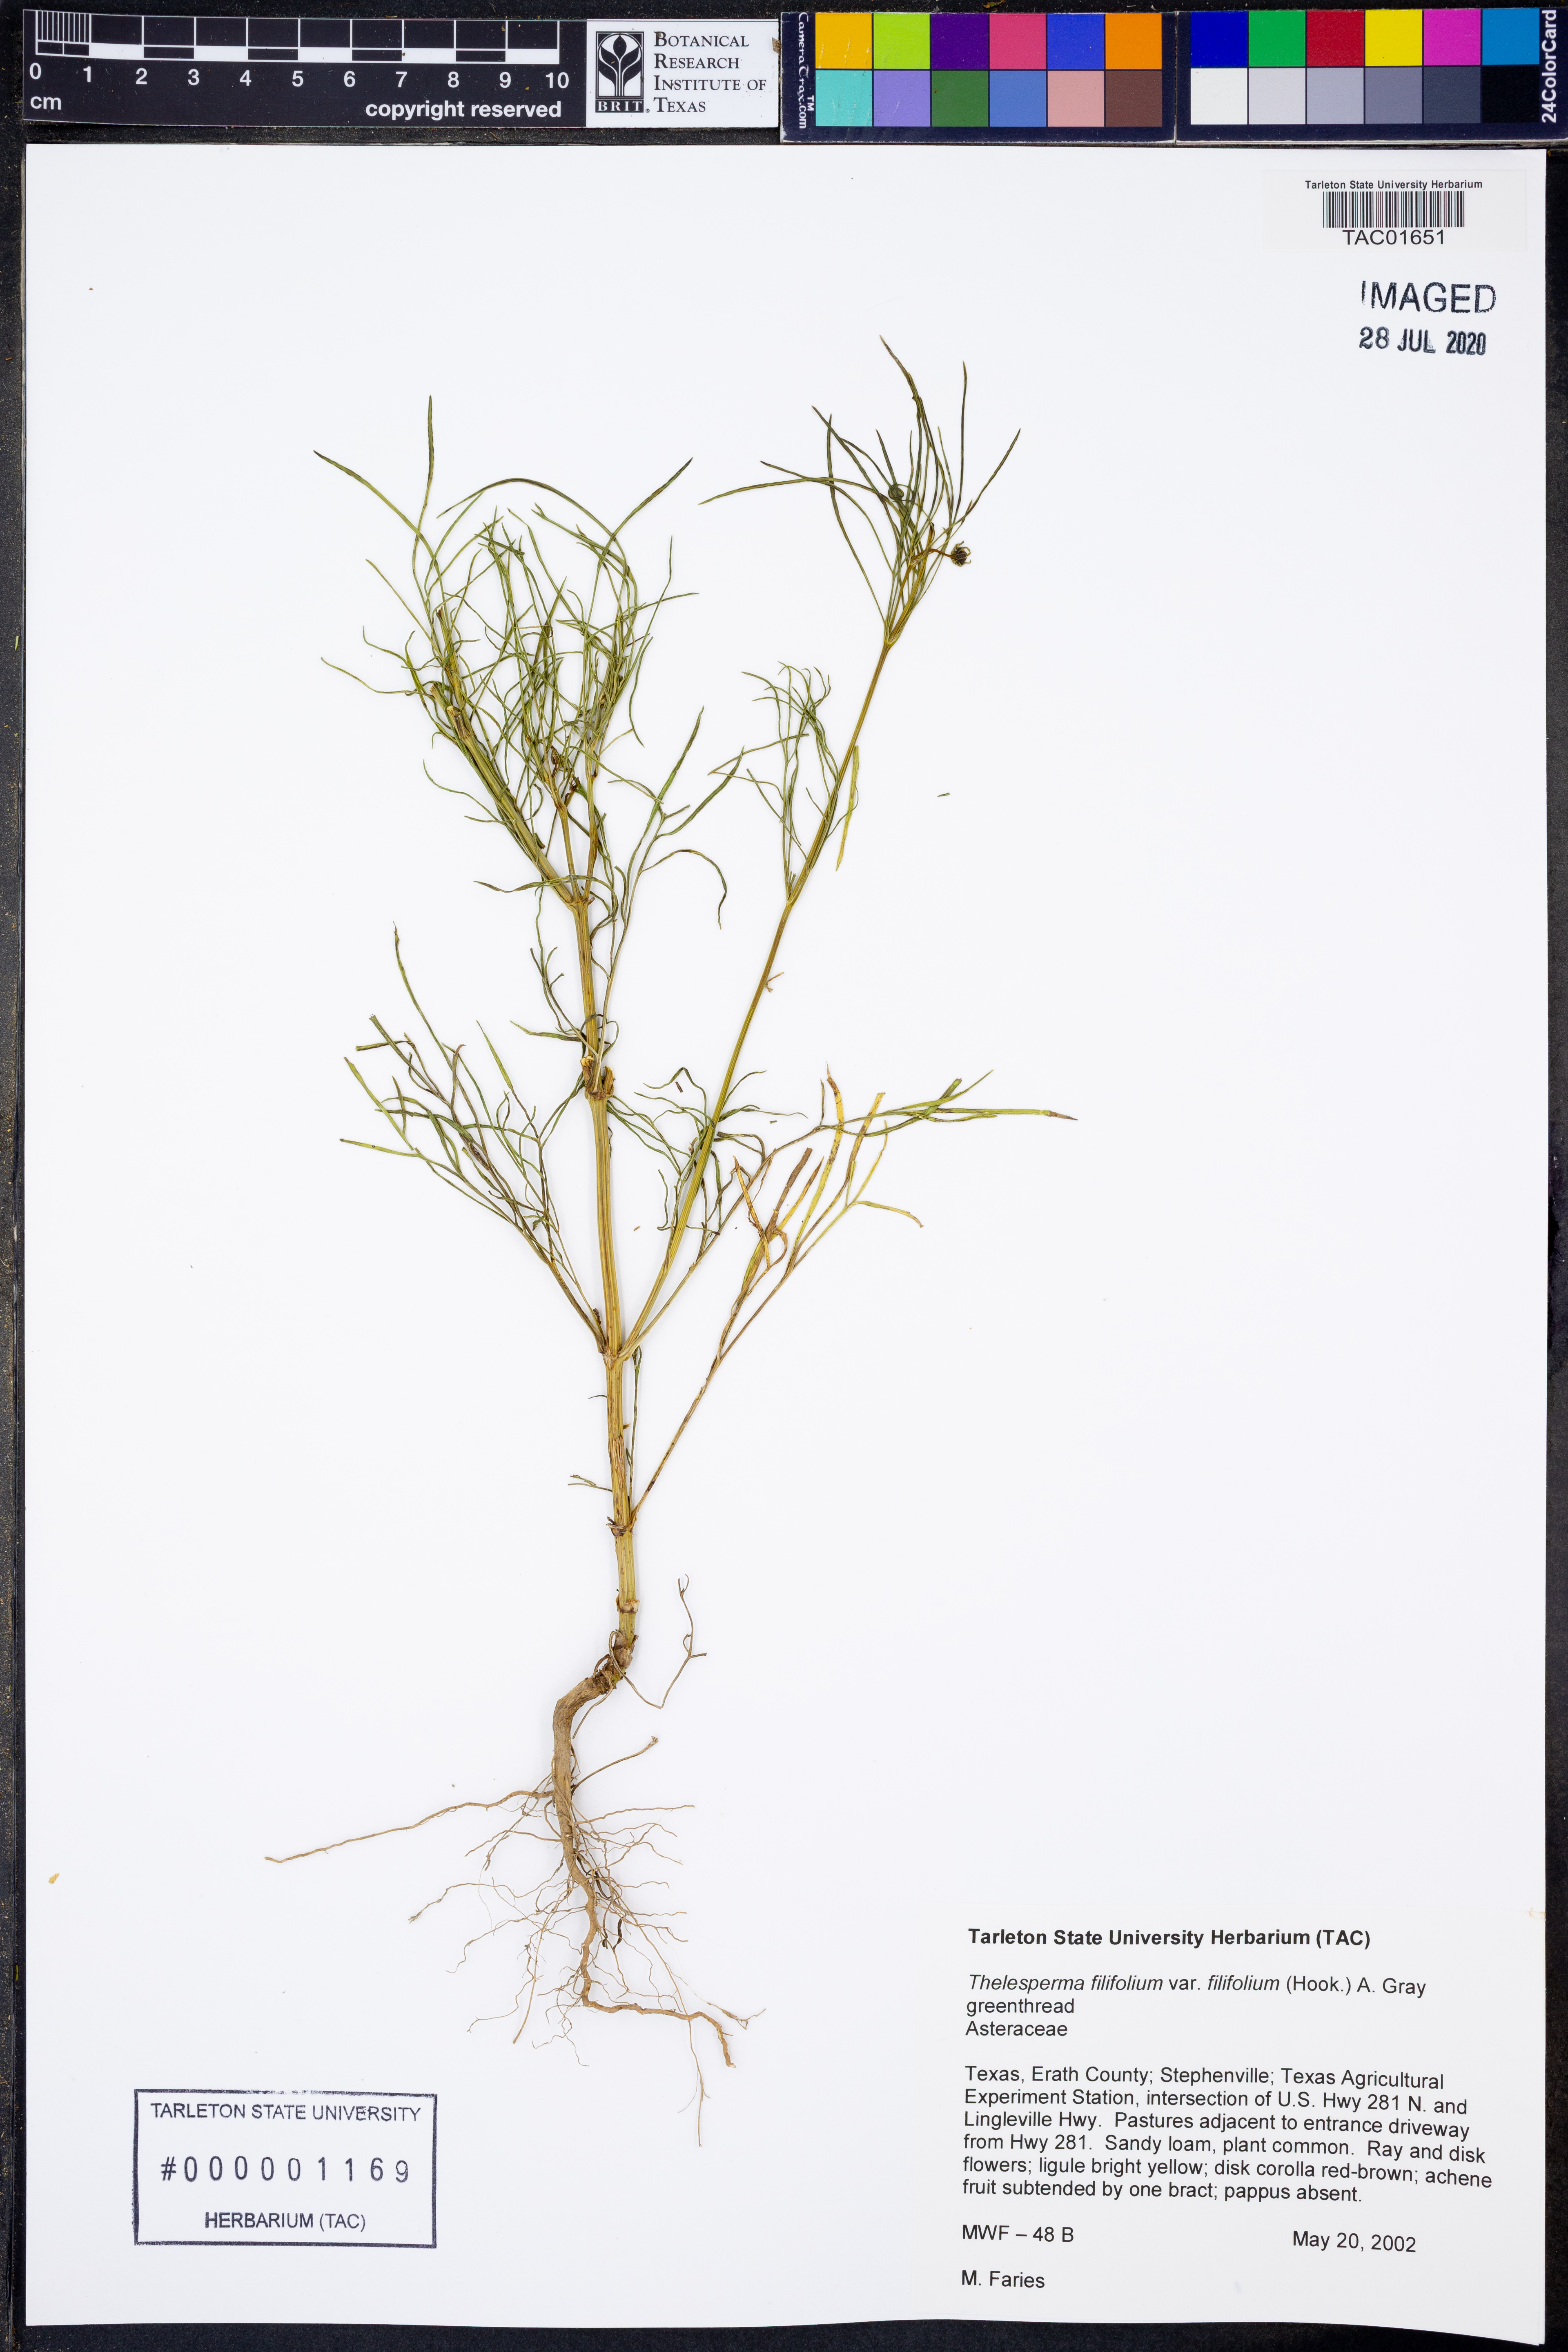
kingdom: Plantae
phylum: Tracheophyta
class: Magnoliopsida
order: Asterales
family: Asteraceae
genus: Thelesperma
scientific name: Thelesperma filifolium
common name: Stiff greenthread
